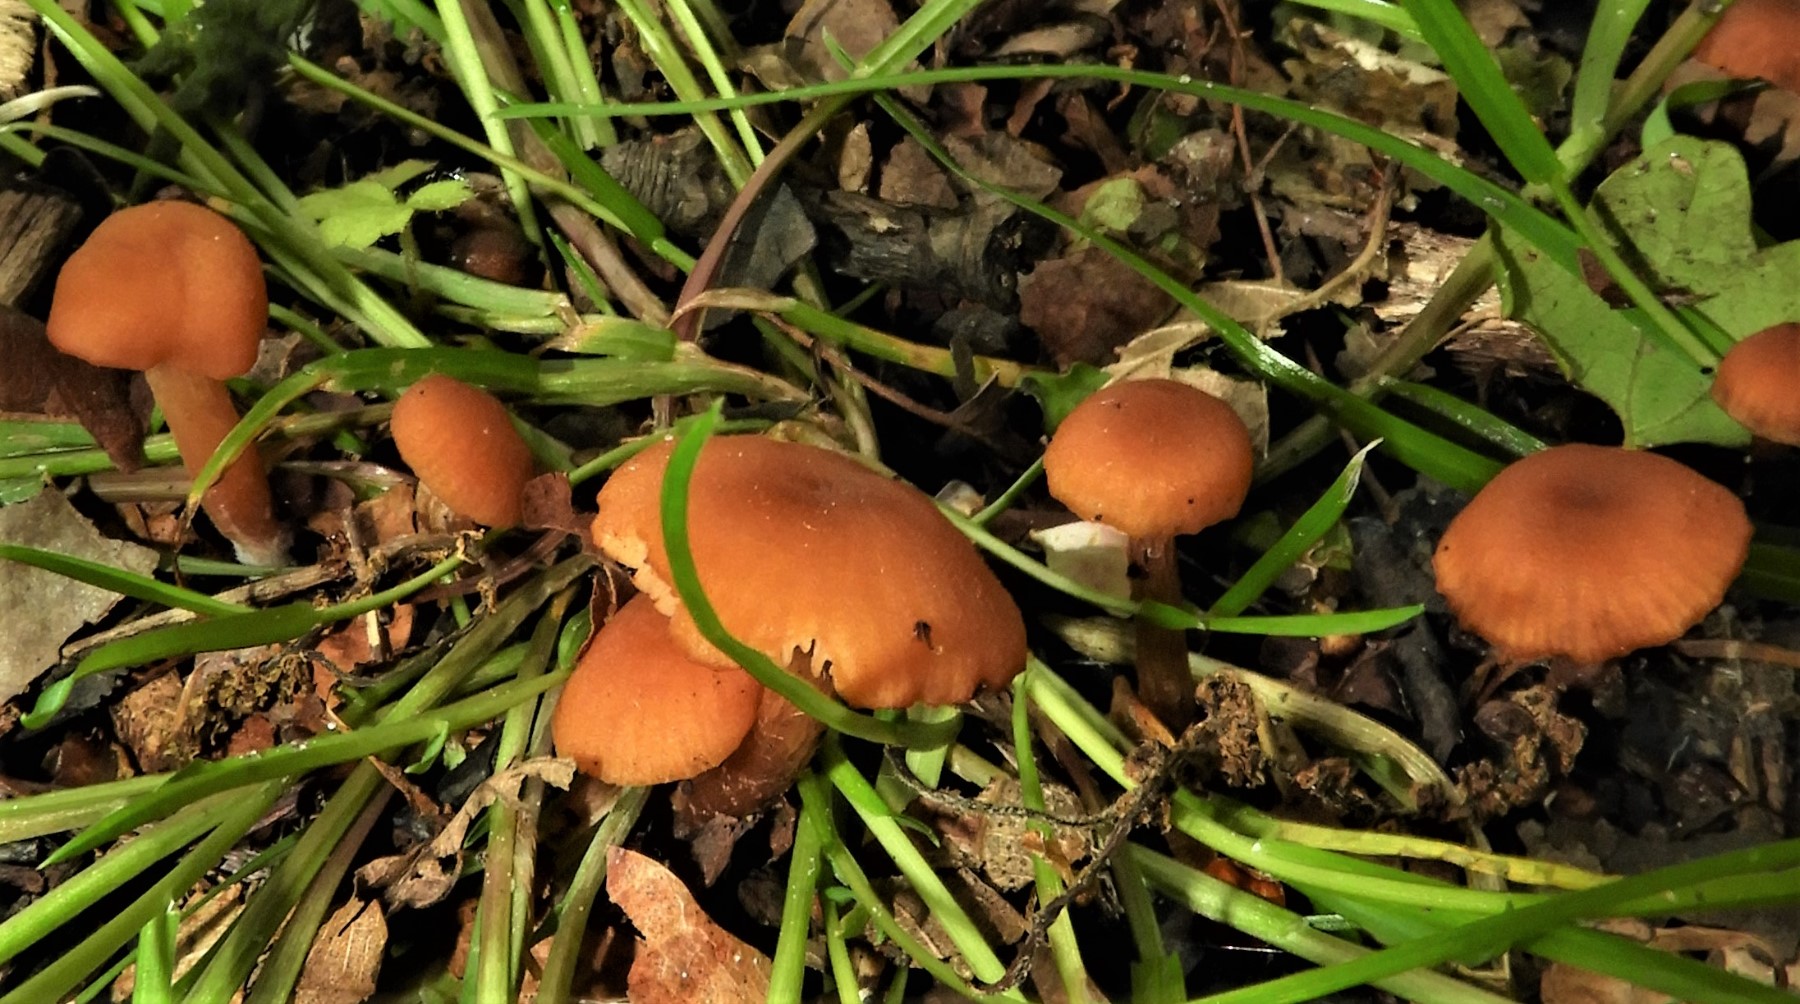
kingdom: Fungi
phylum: Basidiomycota
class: Agaricomycetes
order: Agaricales
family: Hydnangiaceae
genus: Laccaria
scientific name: Laccaria laccata
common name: rød ametysthat
